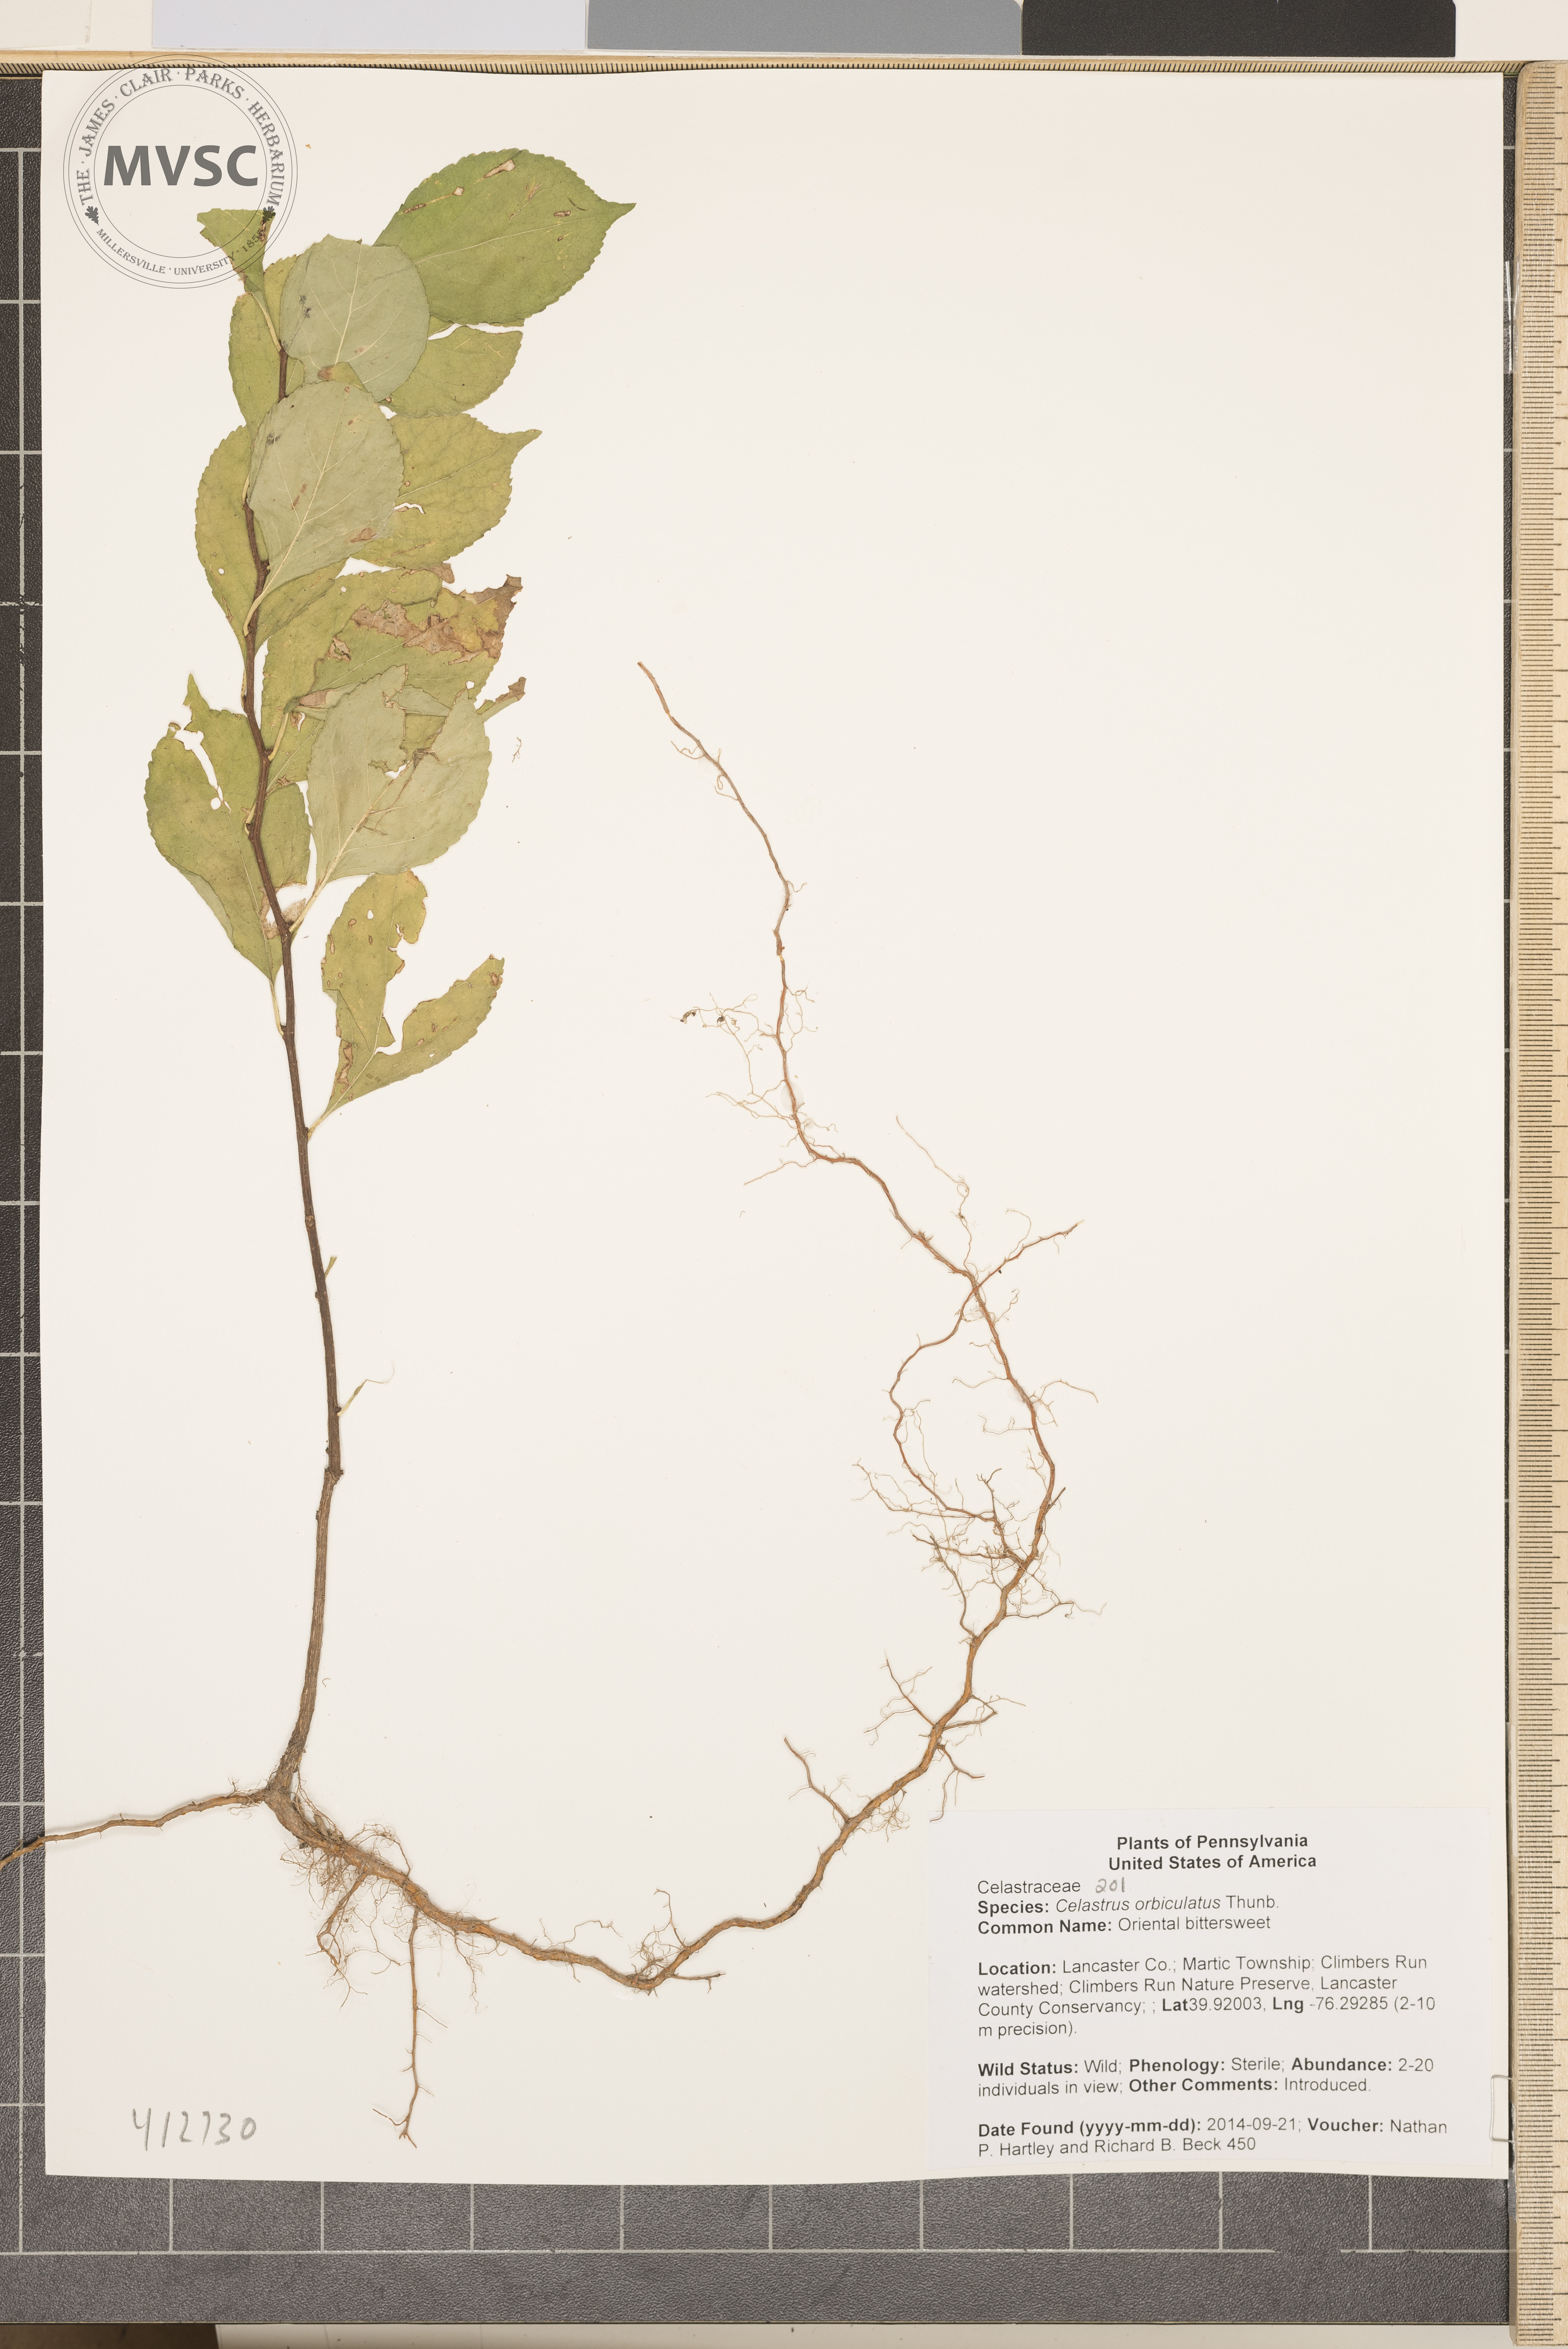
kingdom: Plantae
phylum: Tracheophyta
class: Magnoliopsida
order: Celastrales
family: Celastraceae
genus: Celastrus
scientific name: Celastrus orbiculatus
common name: Oriental bittersweet
